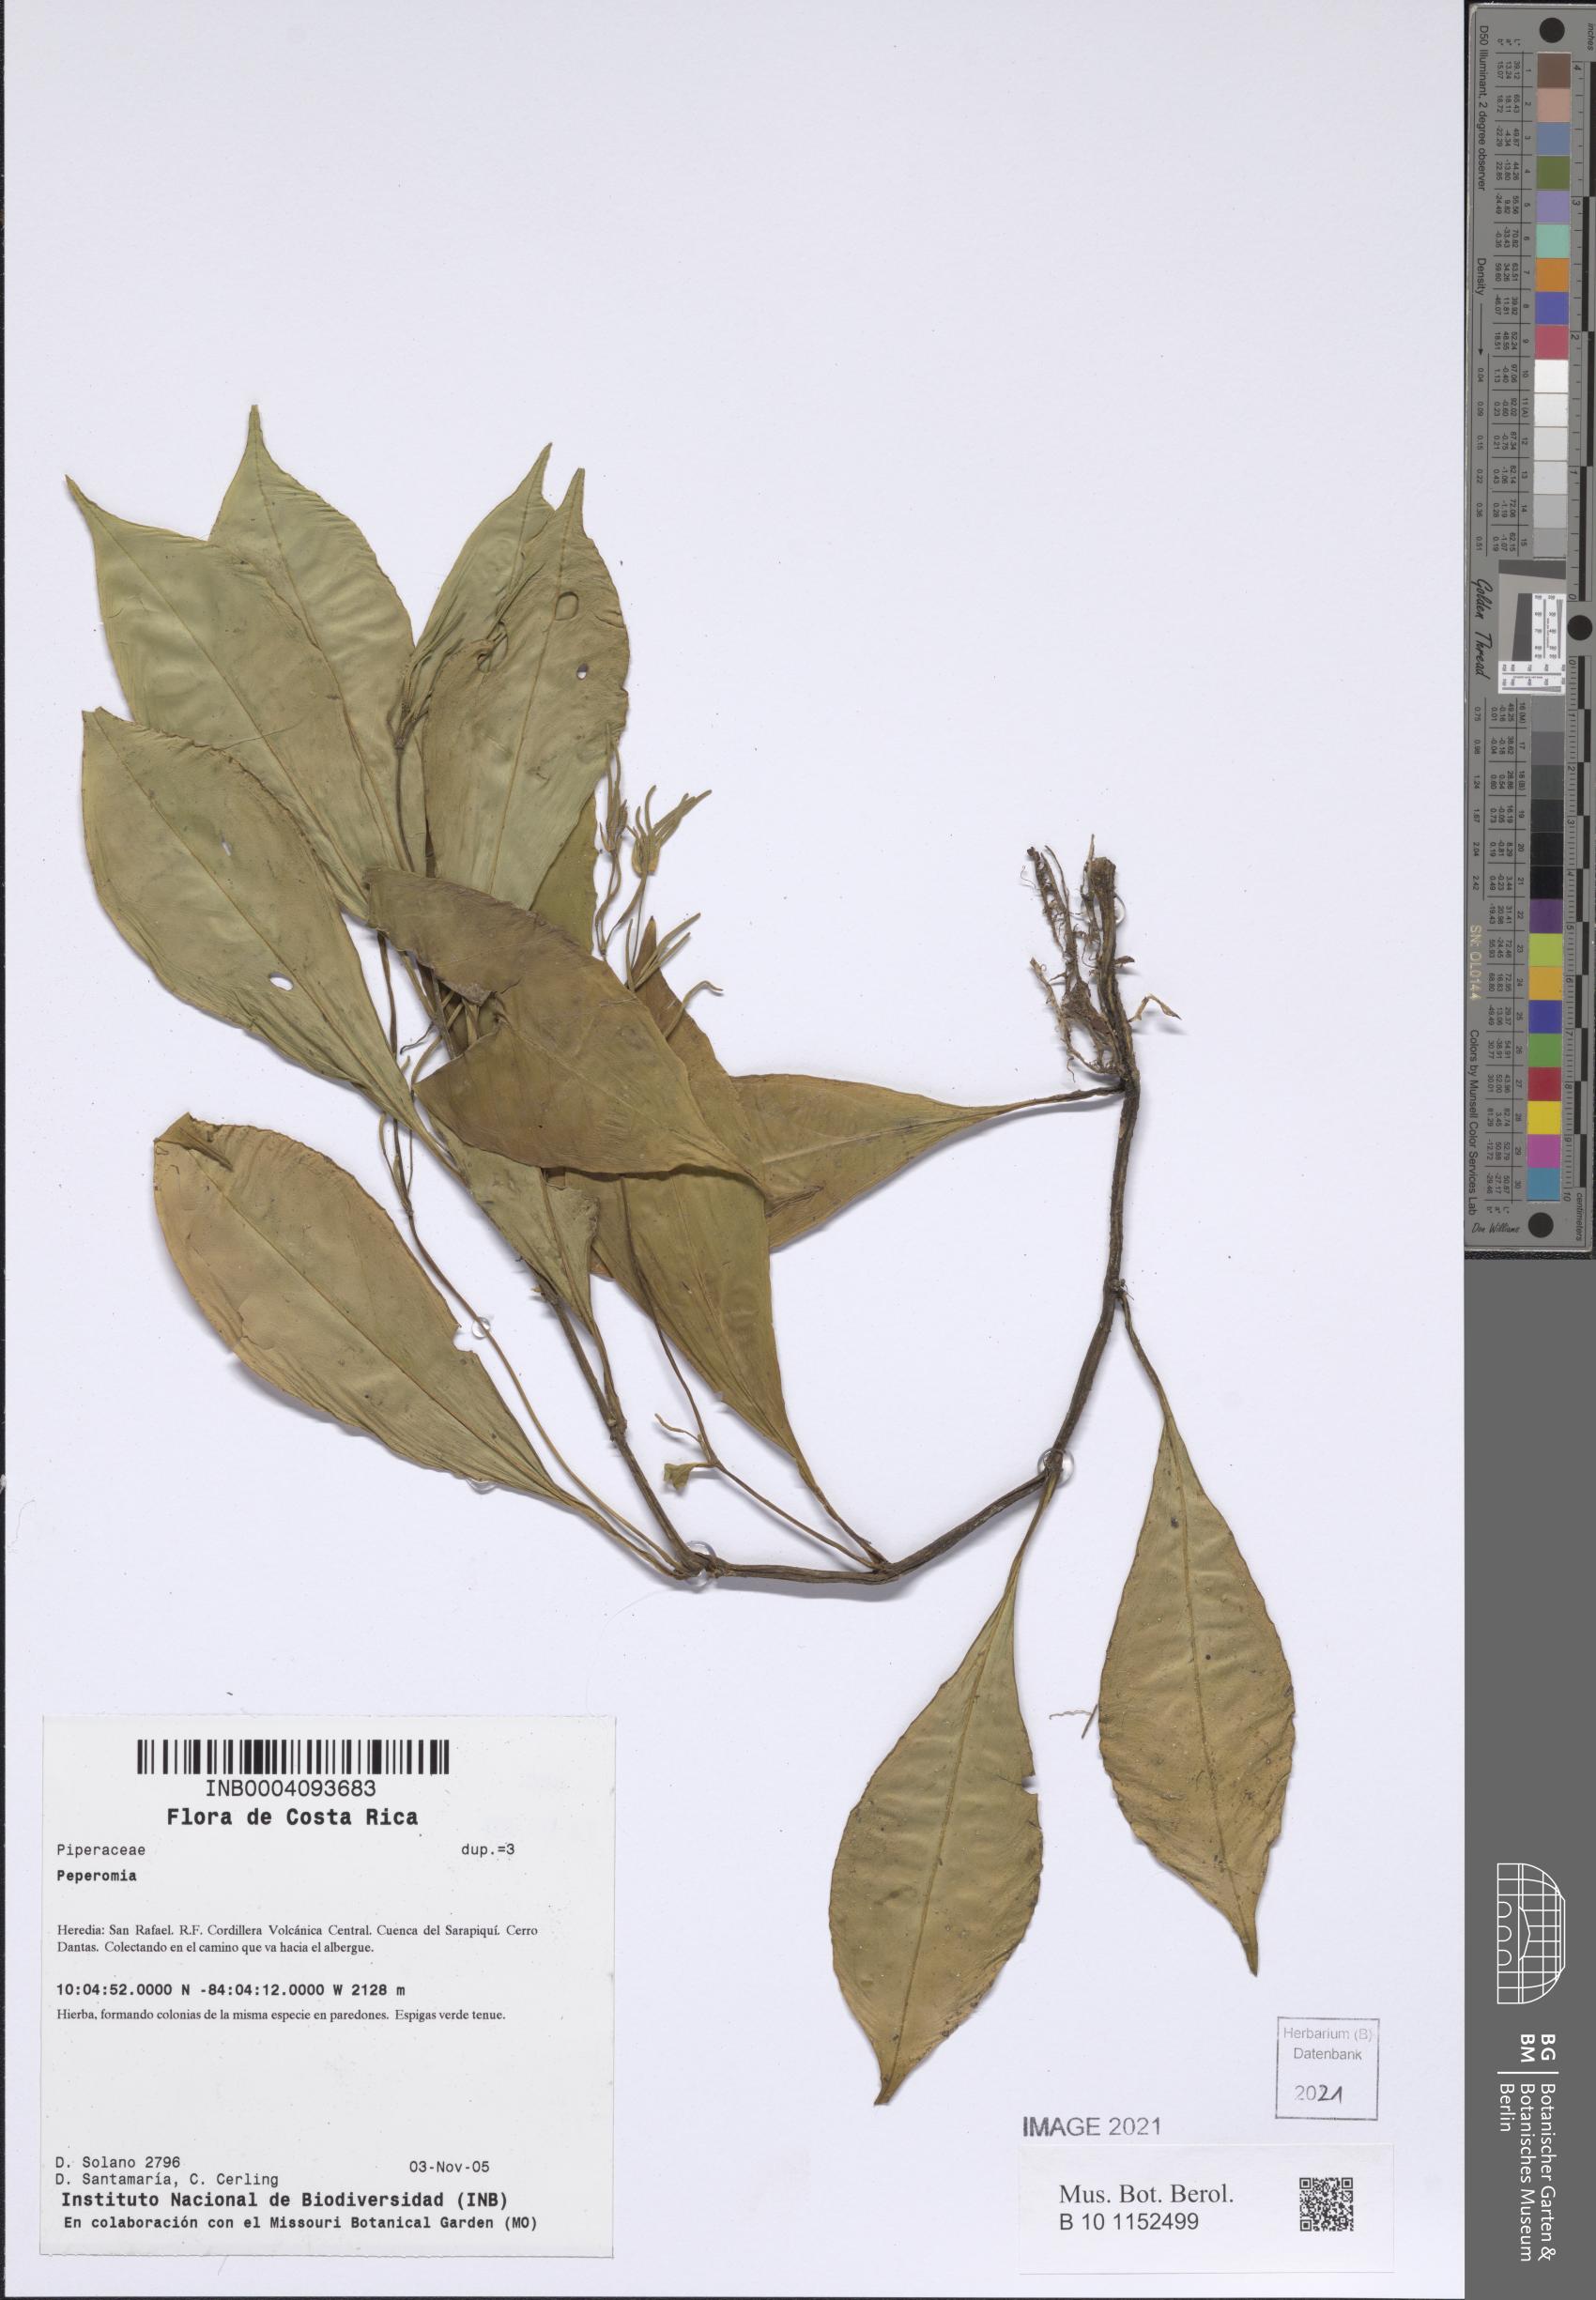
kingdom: Plantae
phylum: Tracheophyta
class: Magnoliopsida
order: Piperales
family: Piperaceae
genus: Peperomia
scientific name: Peperomia
